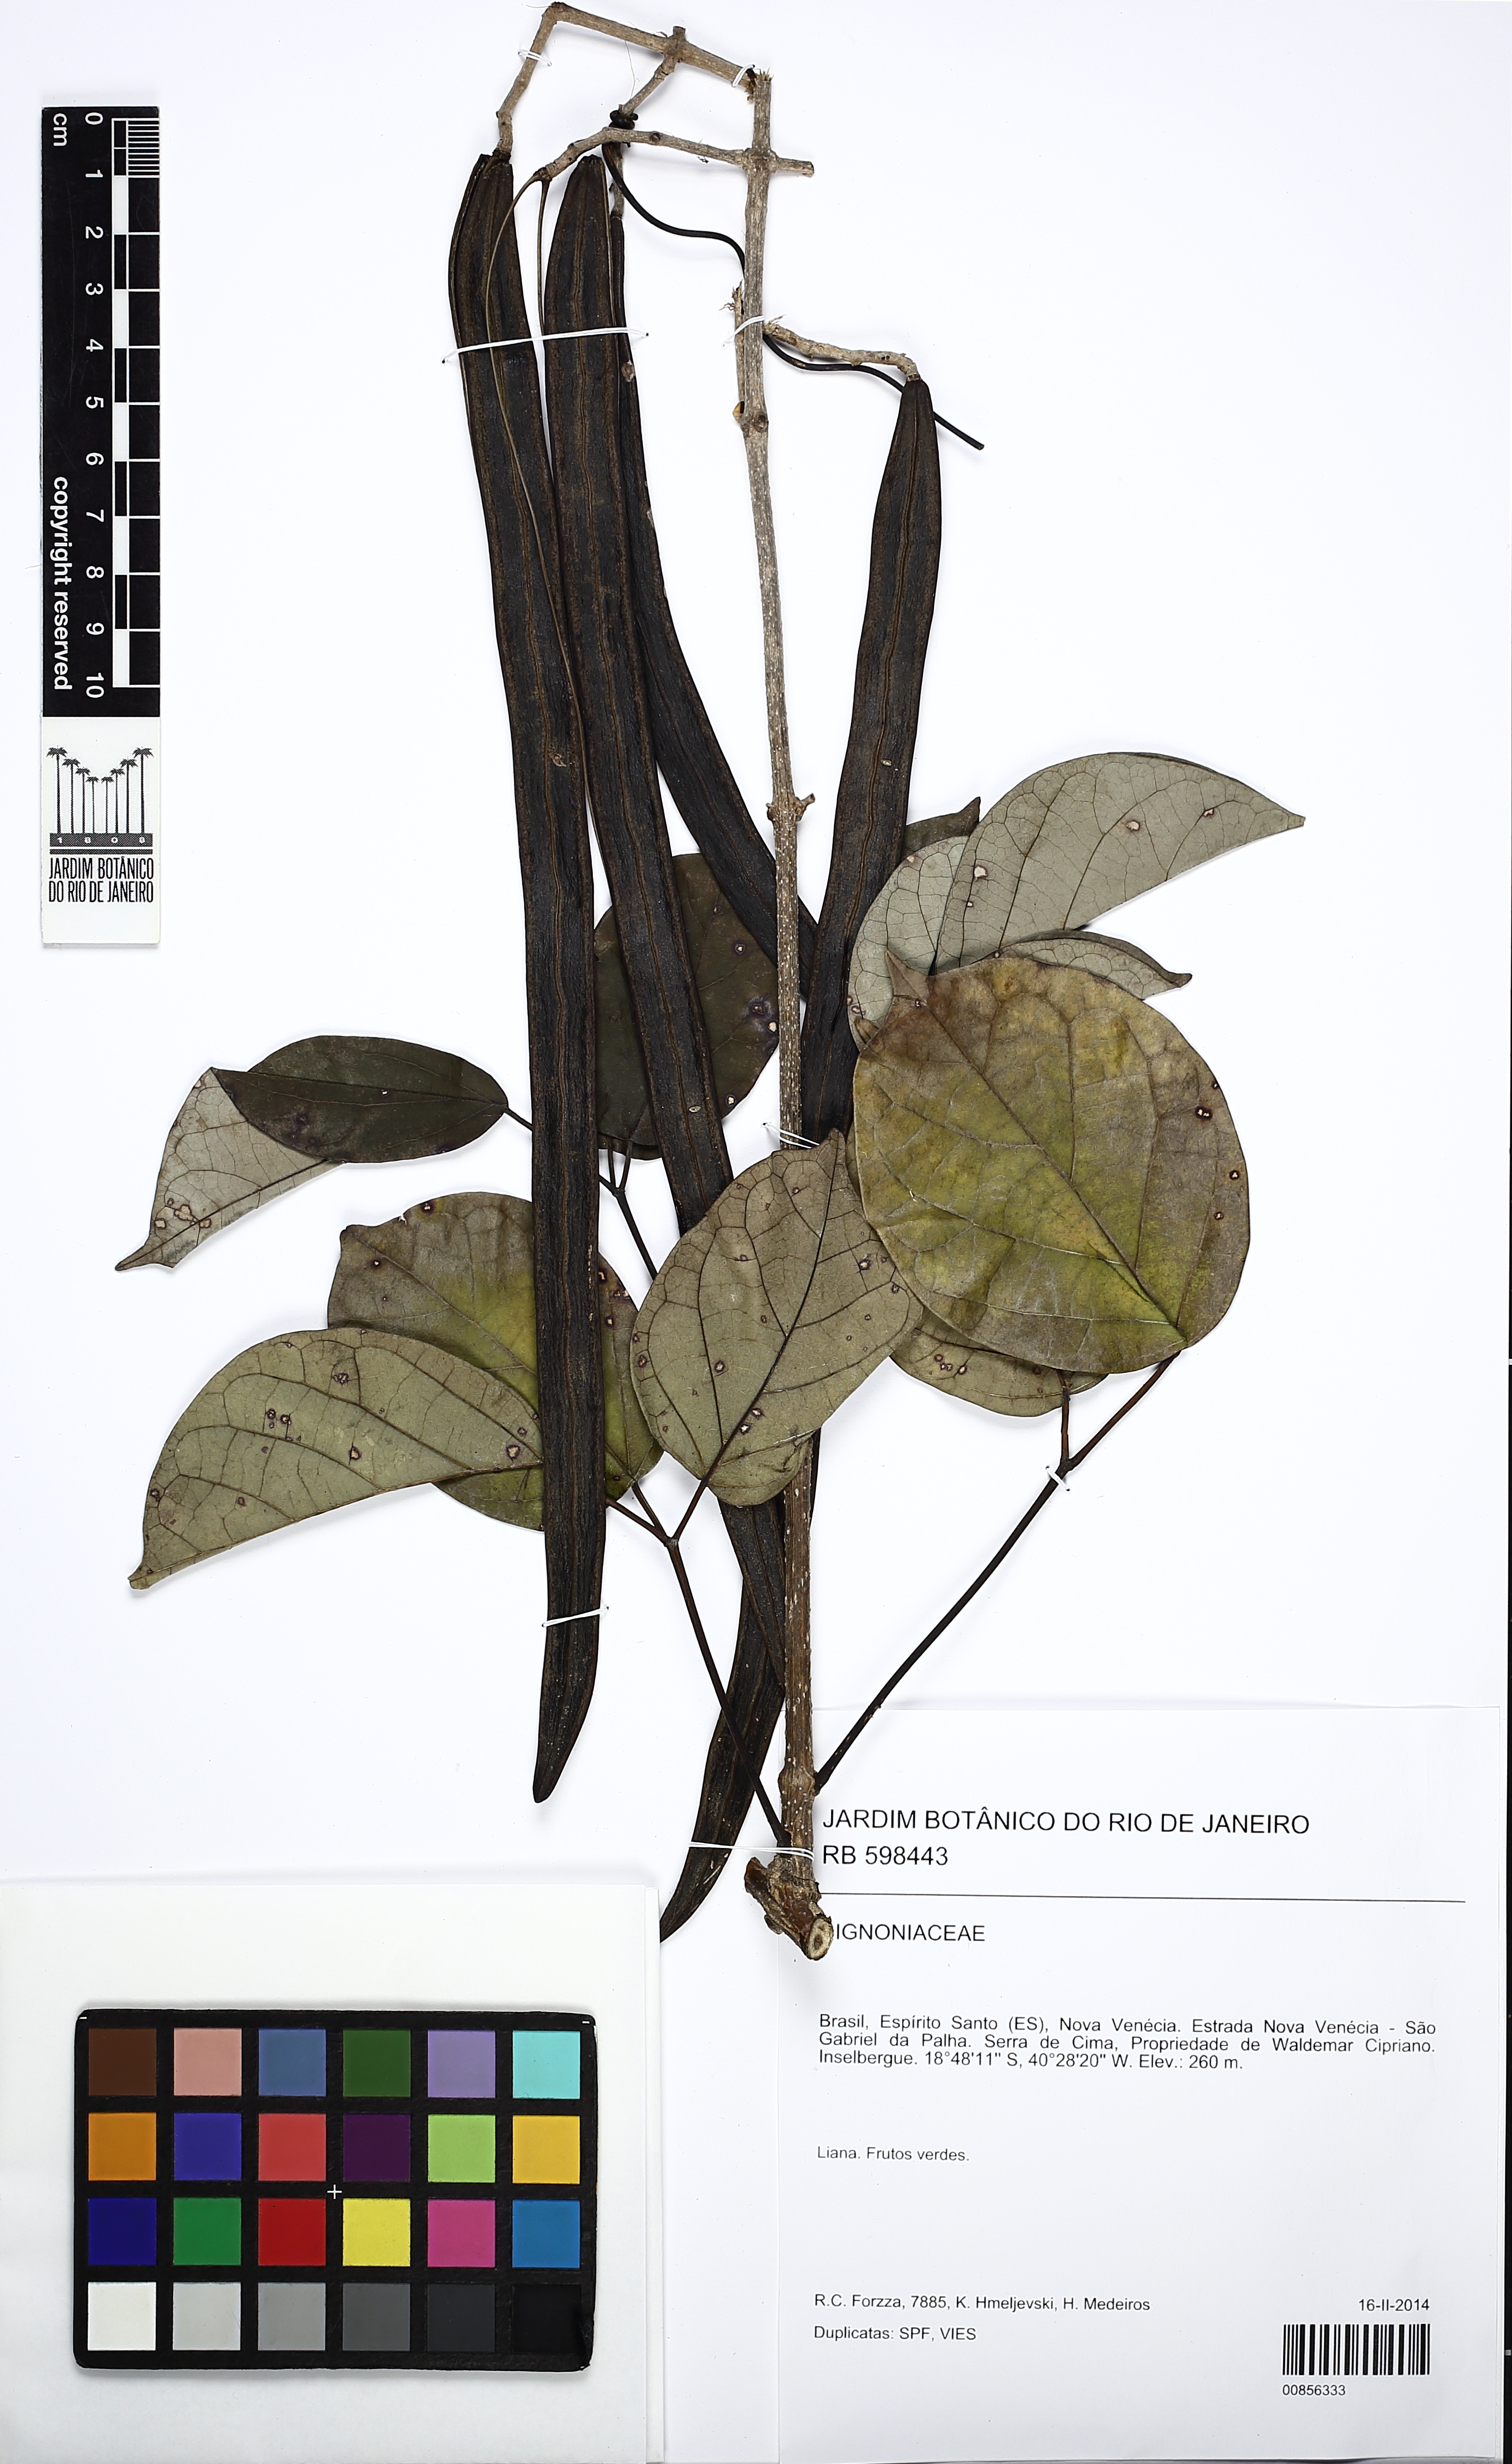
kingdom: Plantae
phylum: Tracheophyta
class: Magnoliopsida
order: Lamiales
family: Bignoniaceae
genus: Fridericia
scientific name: Fridericia subincana
